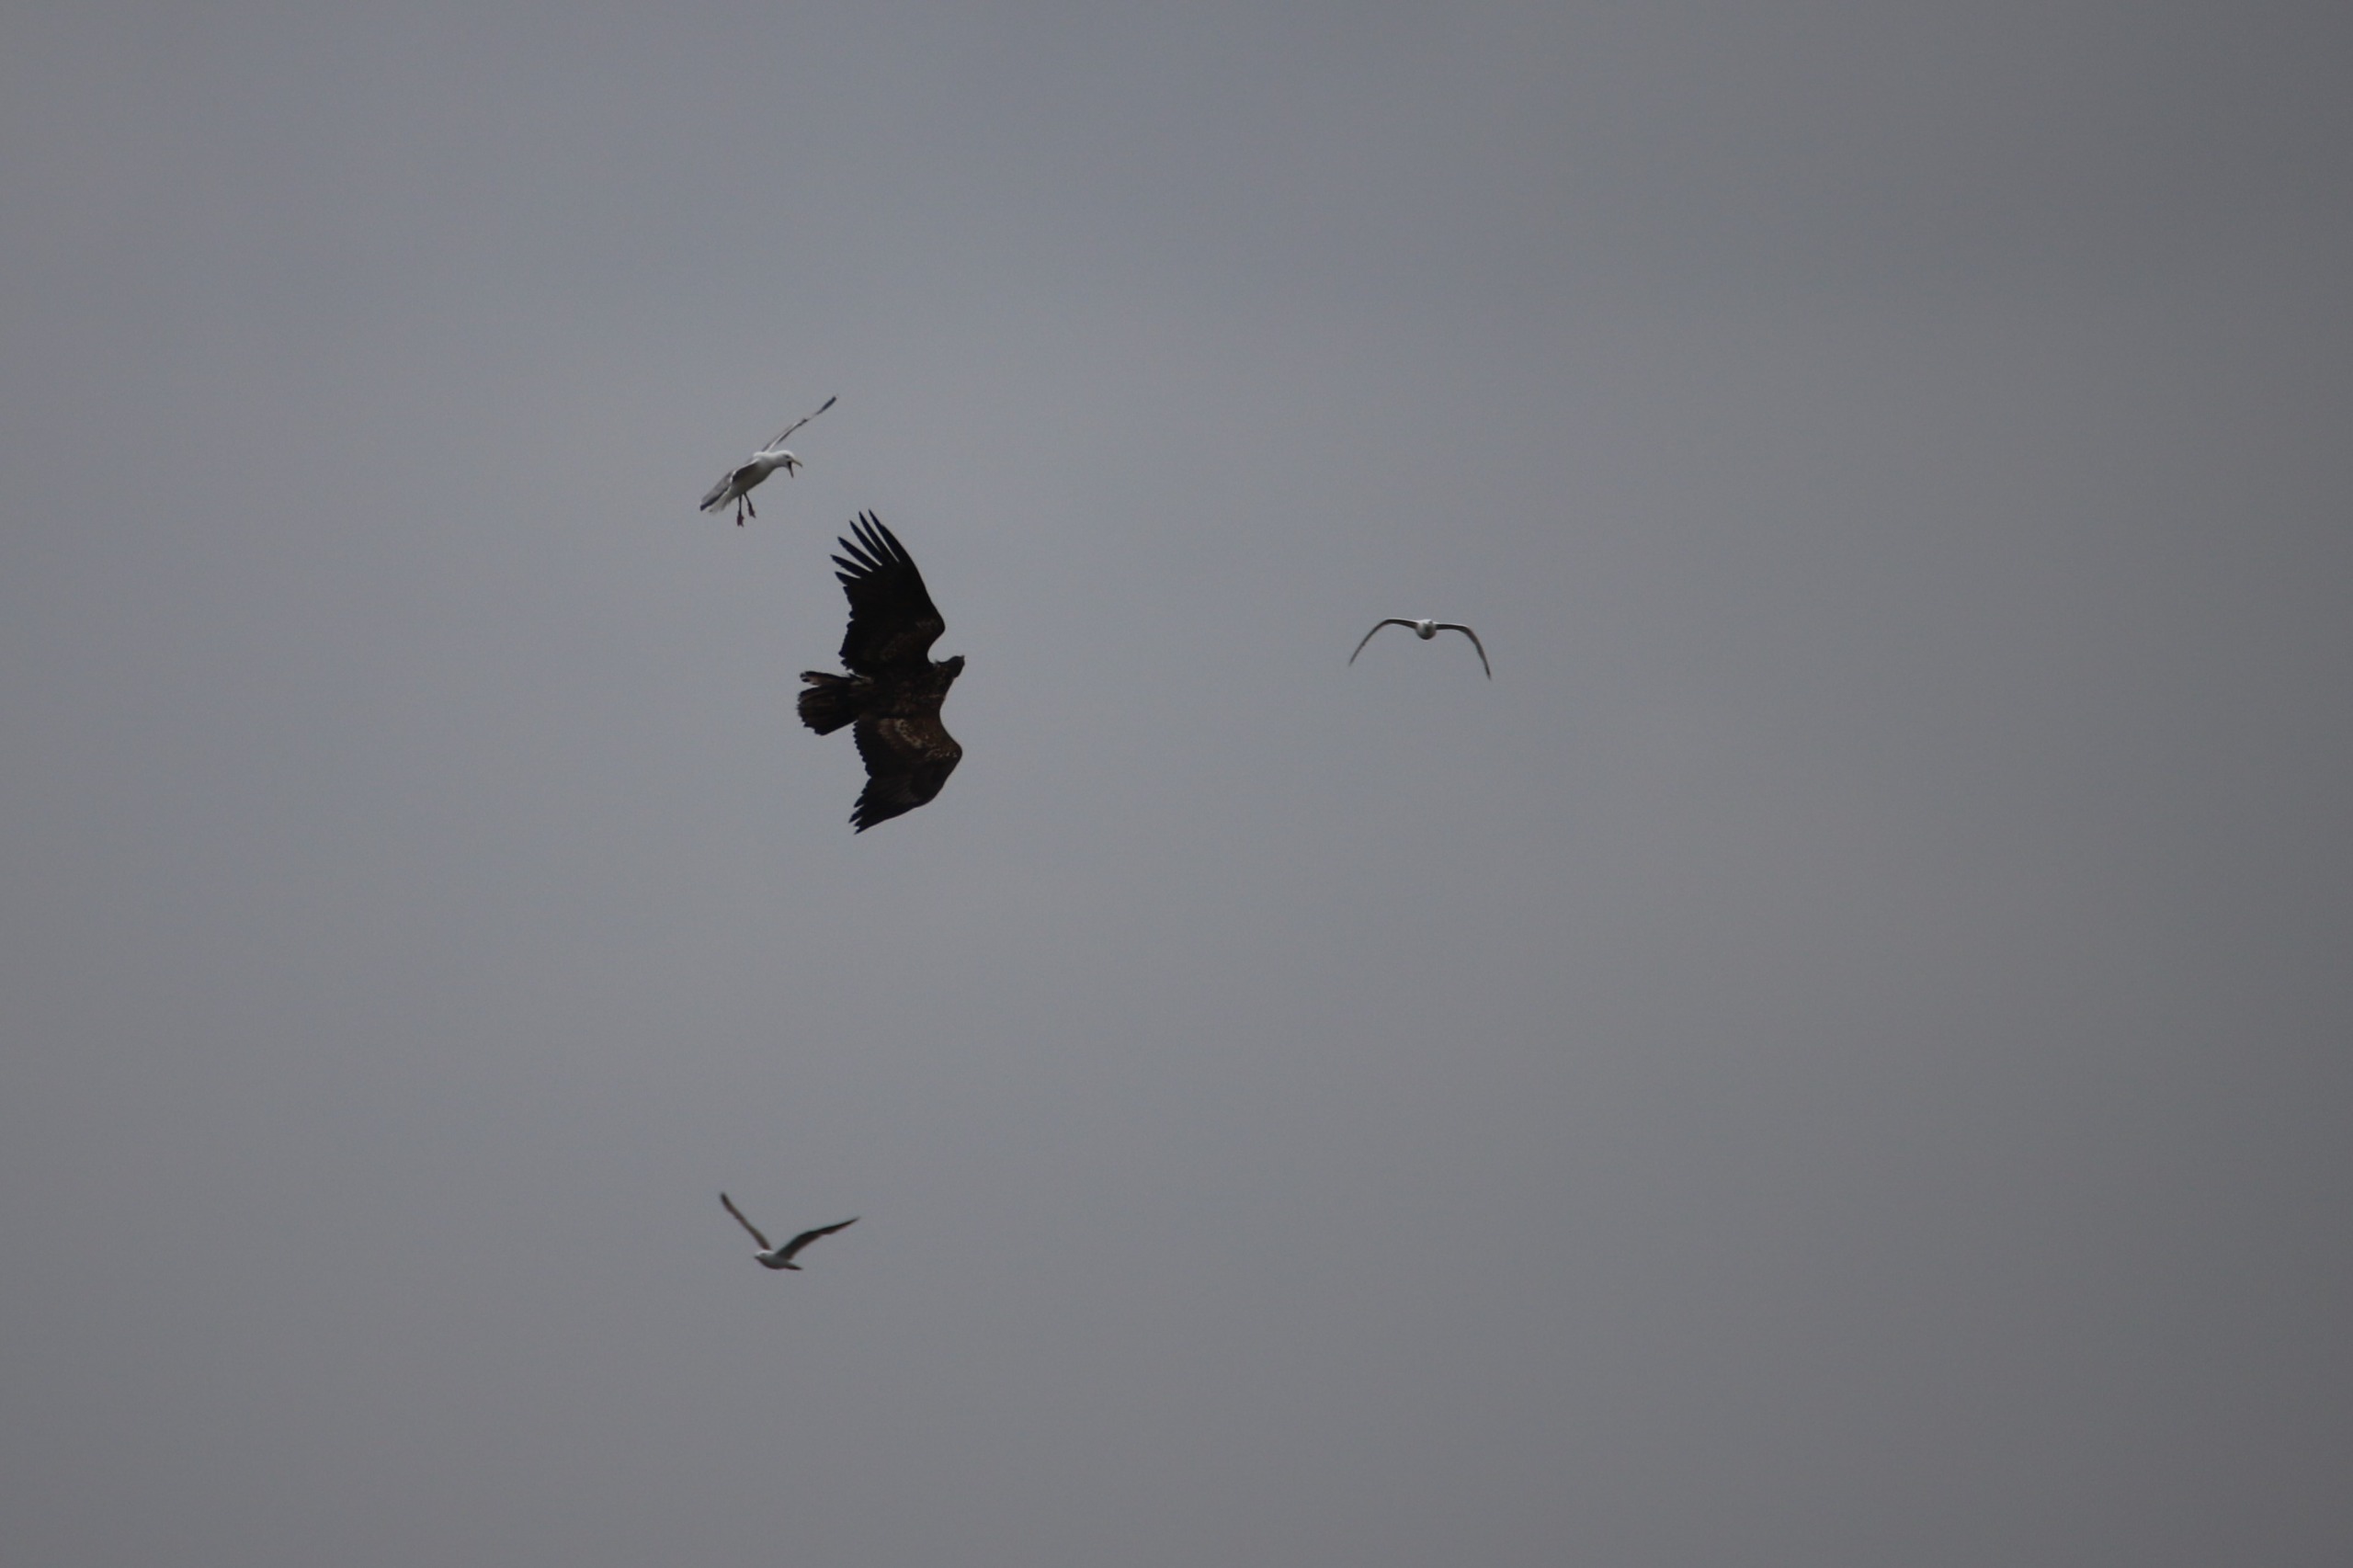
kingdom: Animalia
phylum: Chordata
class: Aves
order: Accipitriformes
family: Accipitridae
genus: Haliaeetus
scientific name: Haliaeetus albicilla
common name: Havørn
